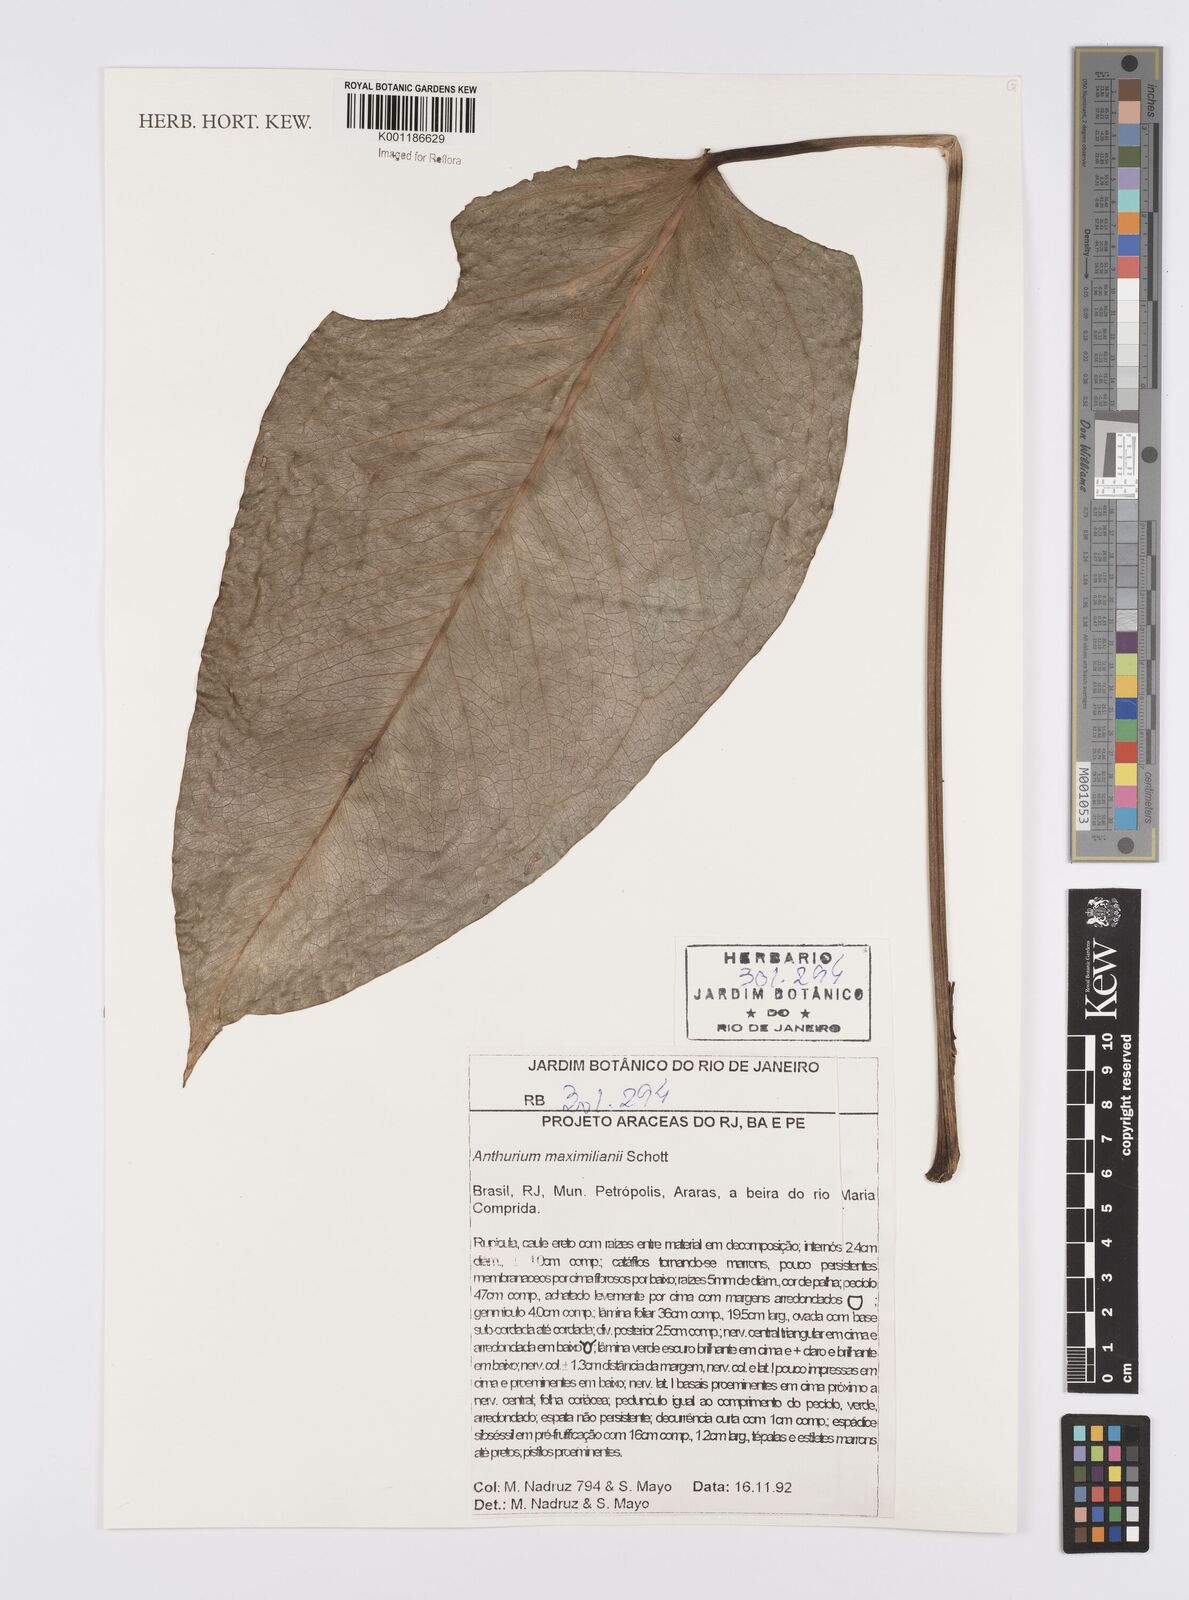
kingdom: Plantae
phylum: Tracheophyta
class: Liliopsida
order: Alismatales
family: Araceae
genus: Anthurium
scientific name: Anthurium augustinum
